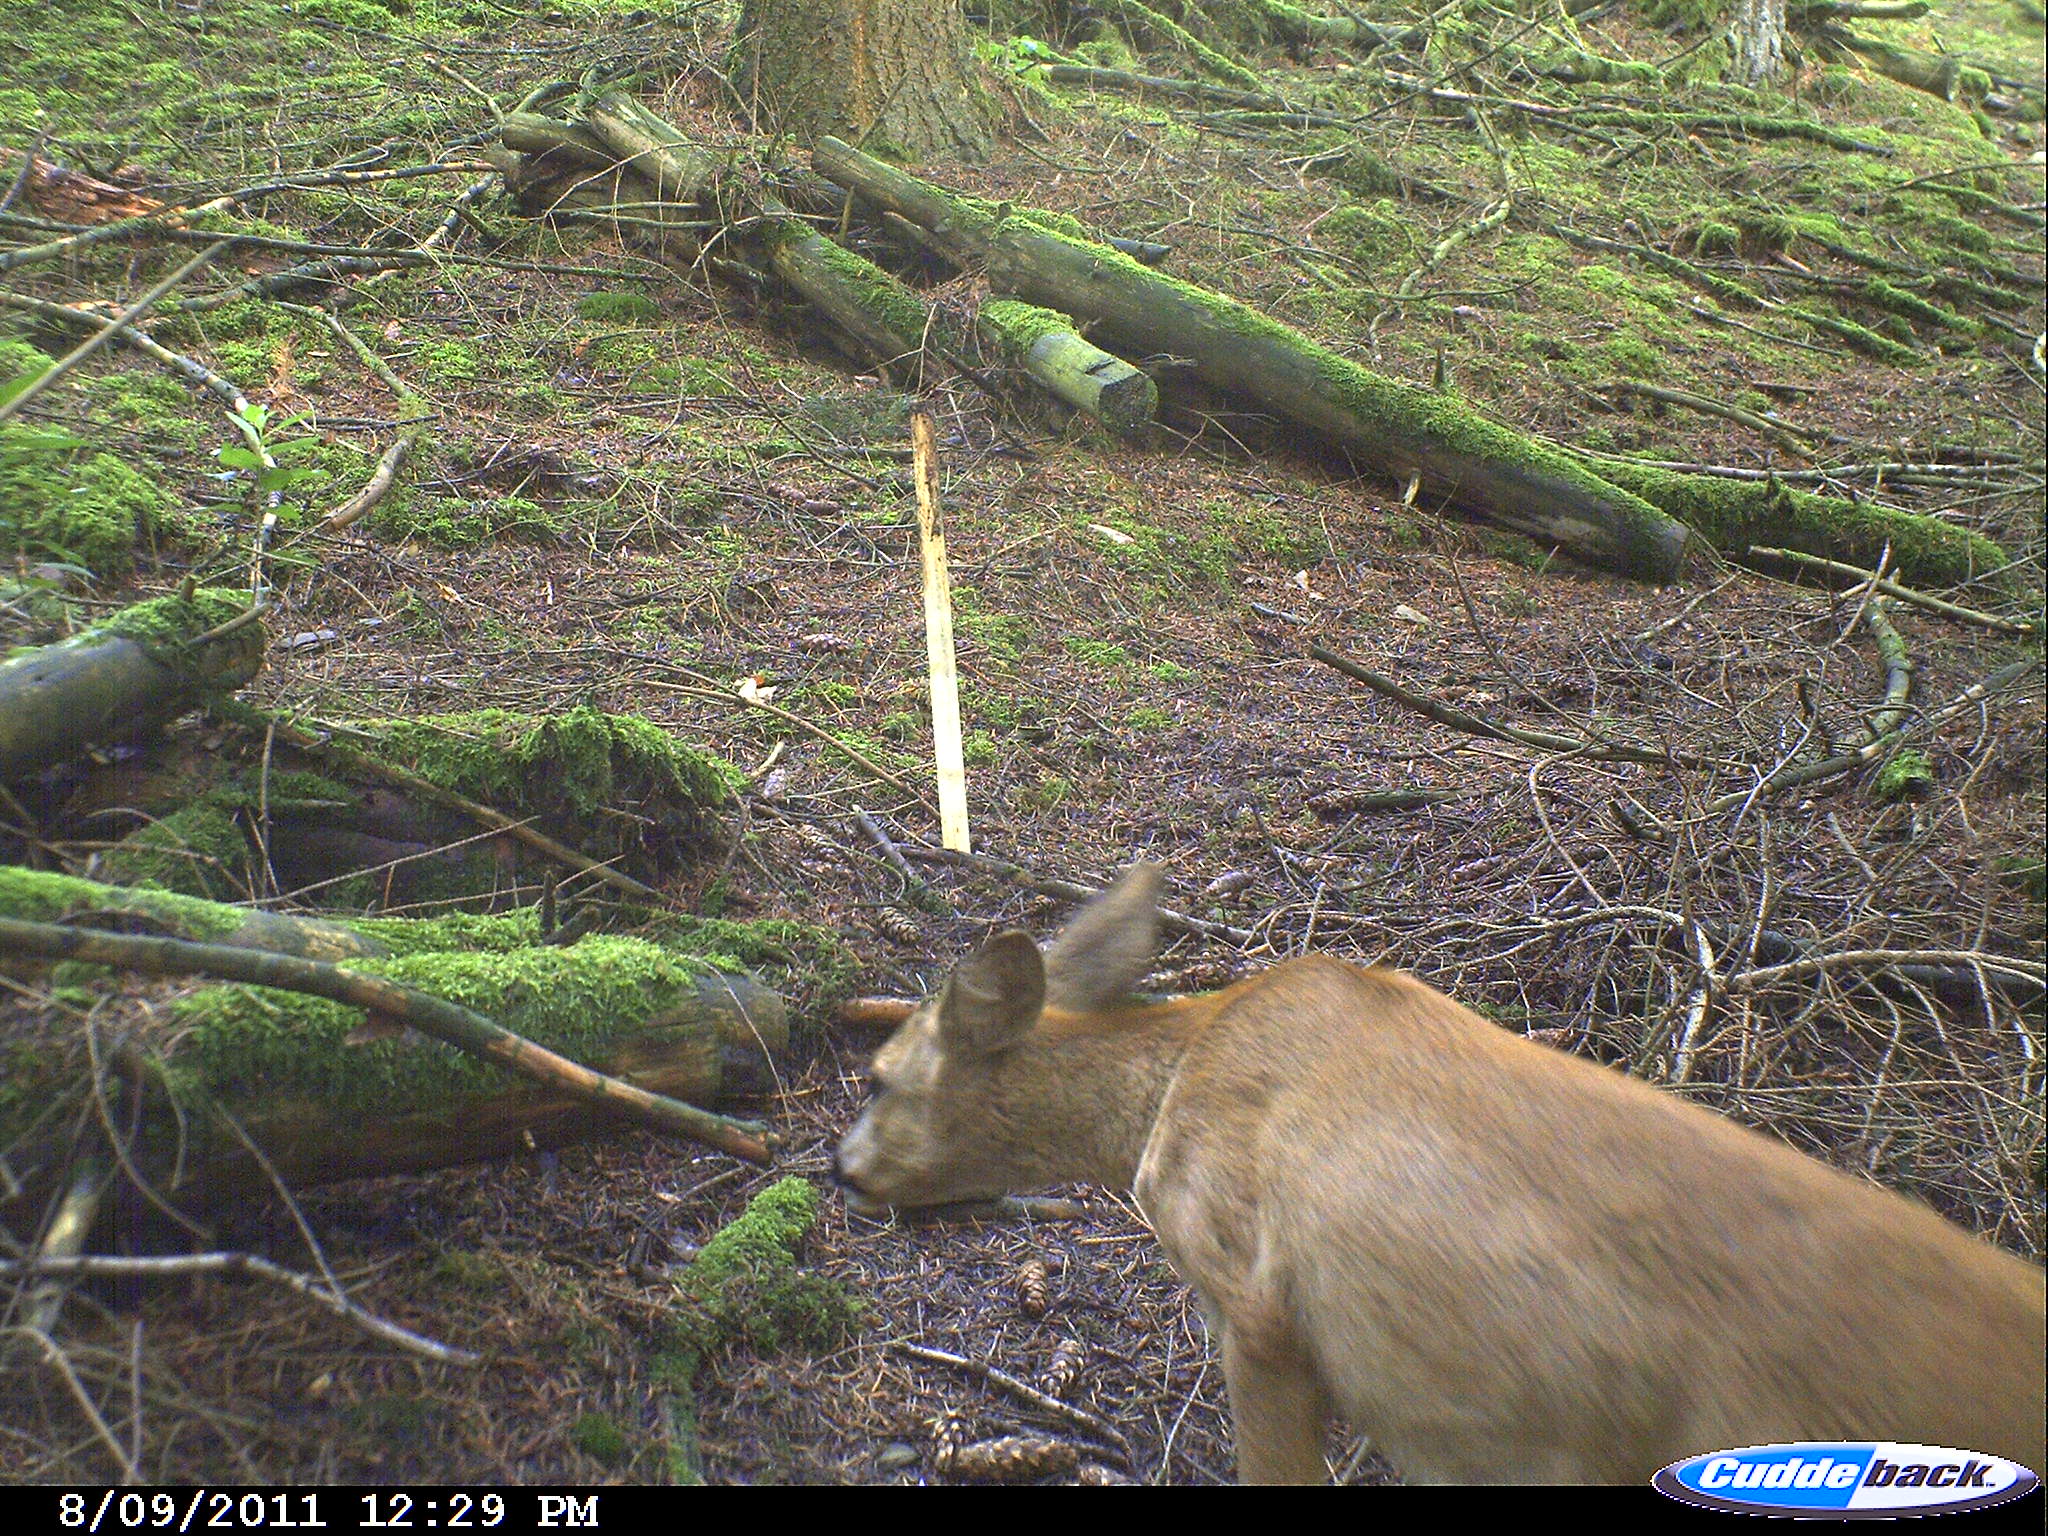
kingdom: Animalia
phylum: Chordata
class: Mammalia
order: Artiodactyla
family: Cervidae
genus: Capreolus
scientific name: Capreolus capreolus
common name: Western roe deer
